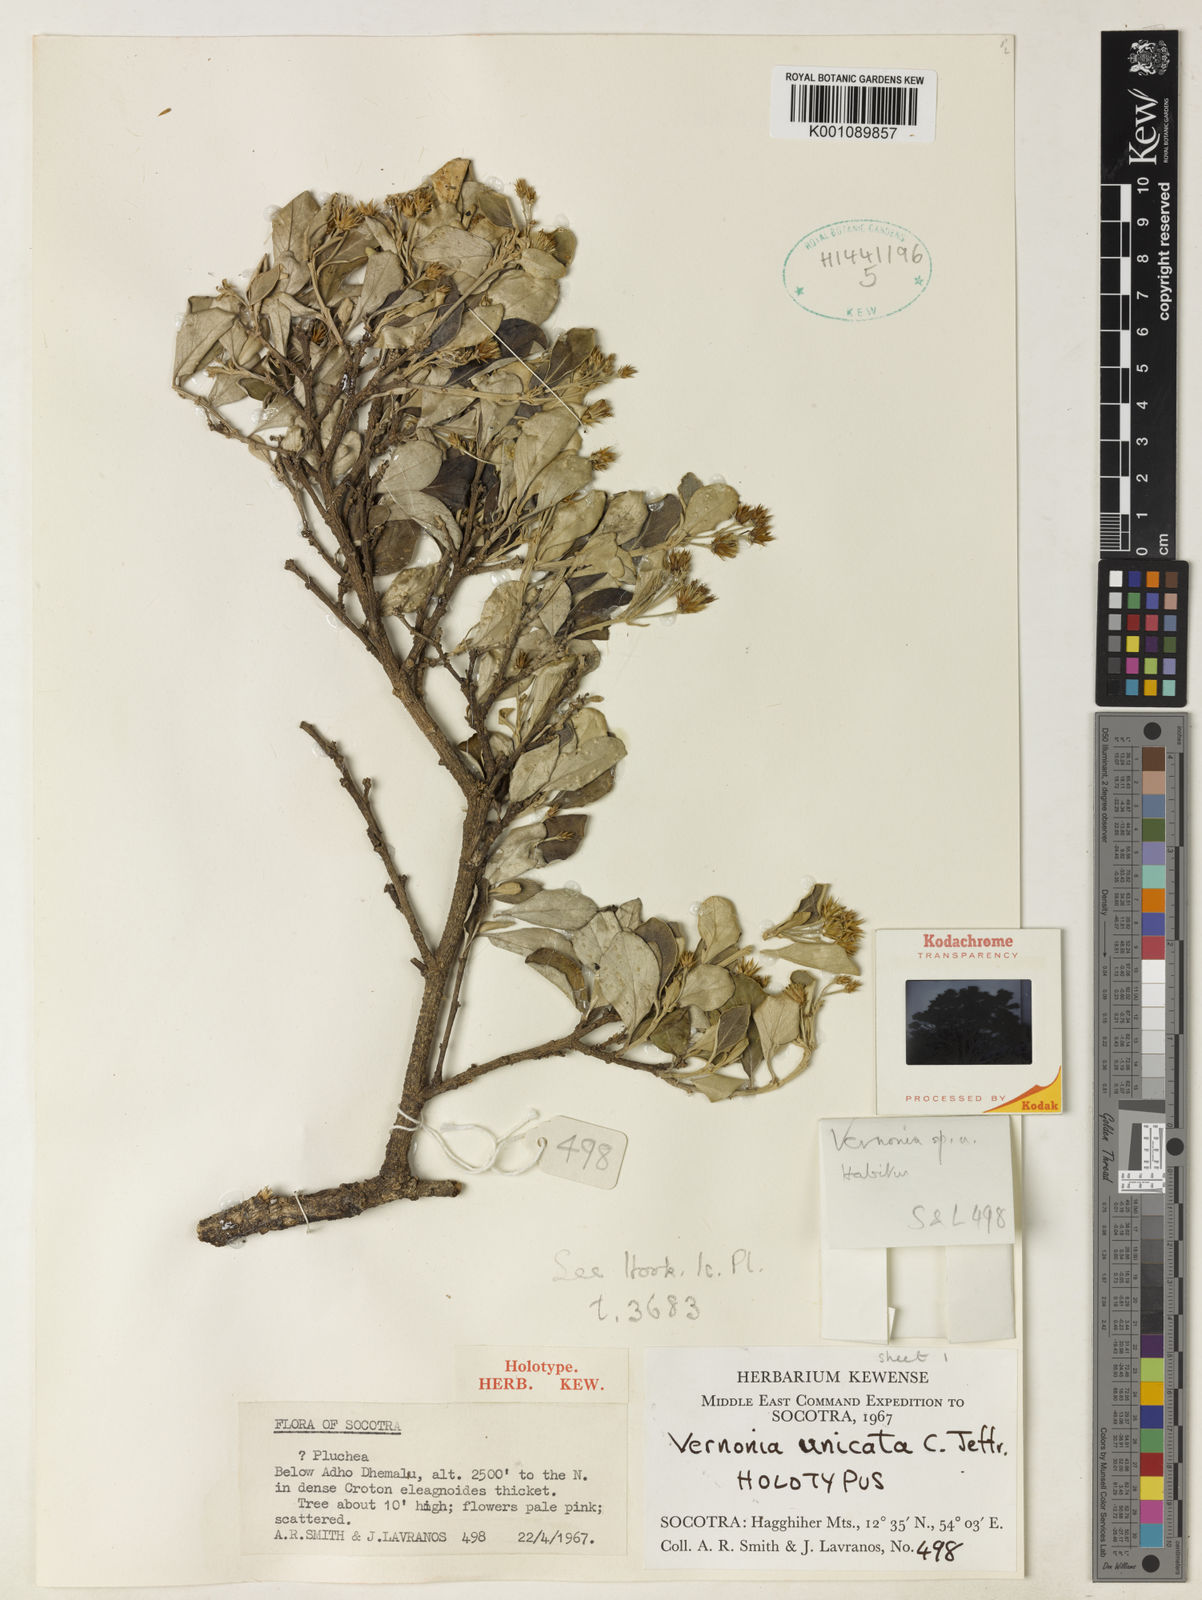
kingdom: Plantae
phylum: Tracheophyta
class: Magnoliopsida
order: Asterales
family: Asteraceae
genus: Vernonia
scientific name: Vernonia unicata
